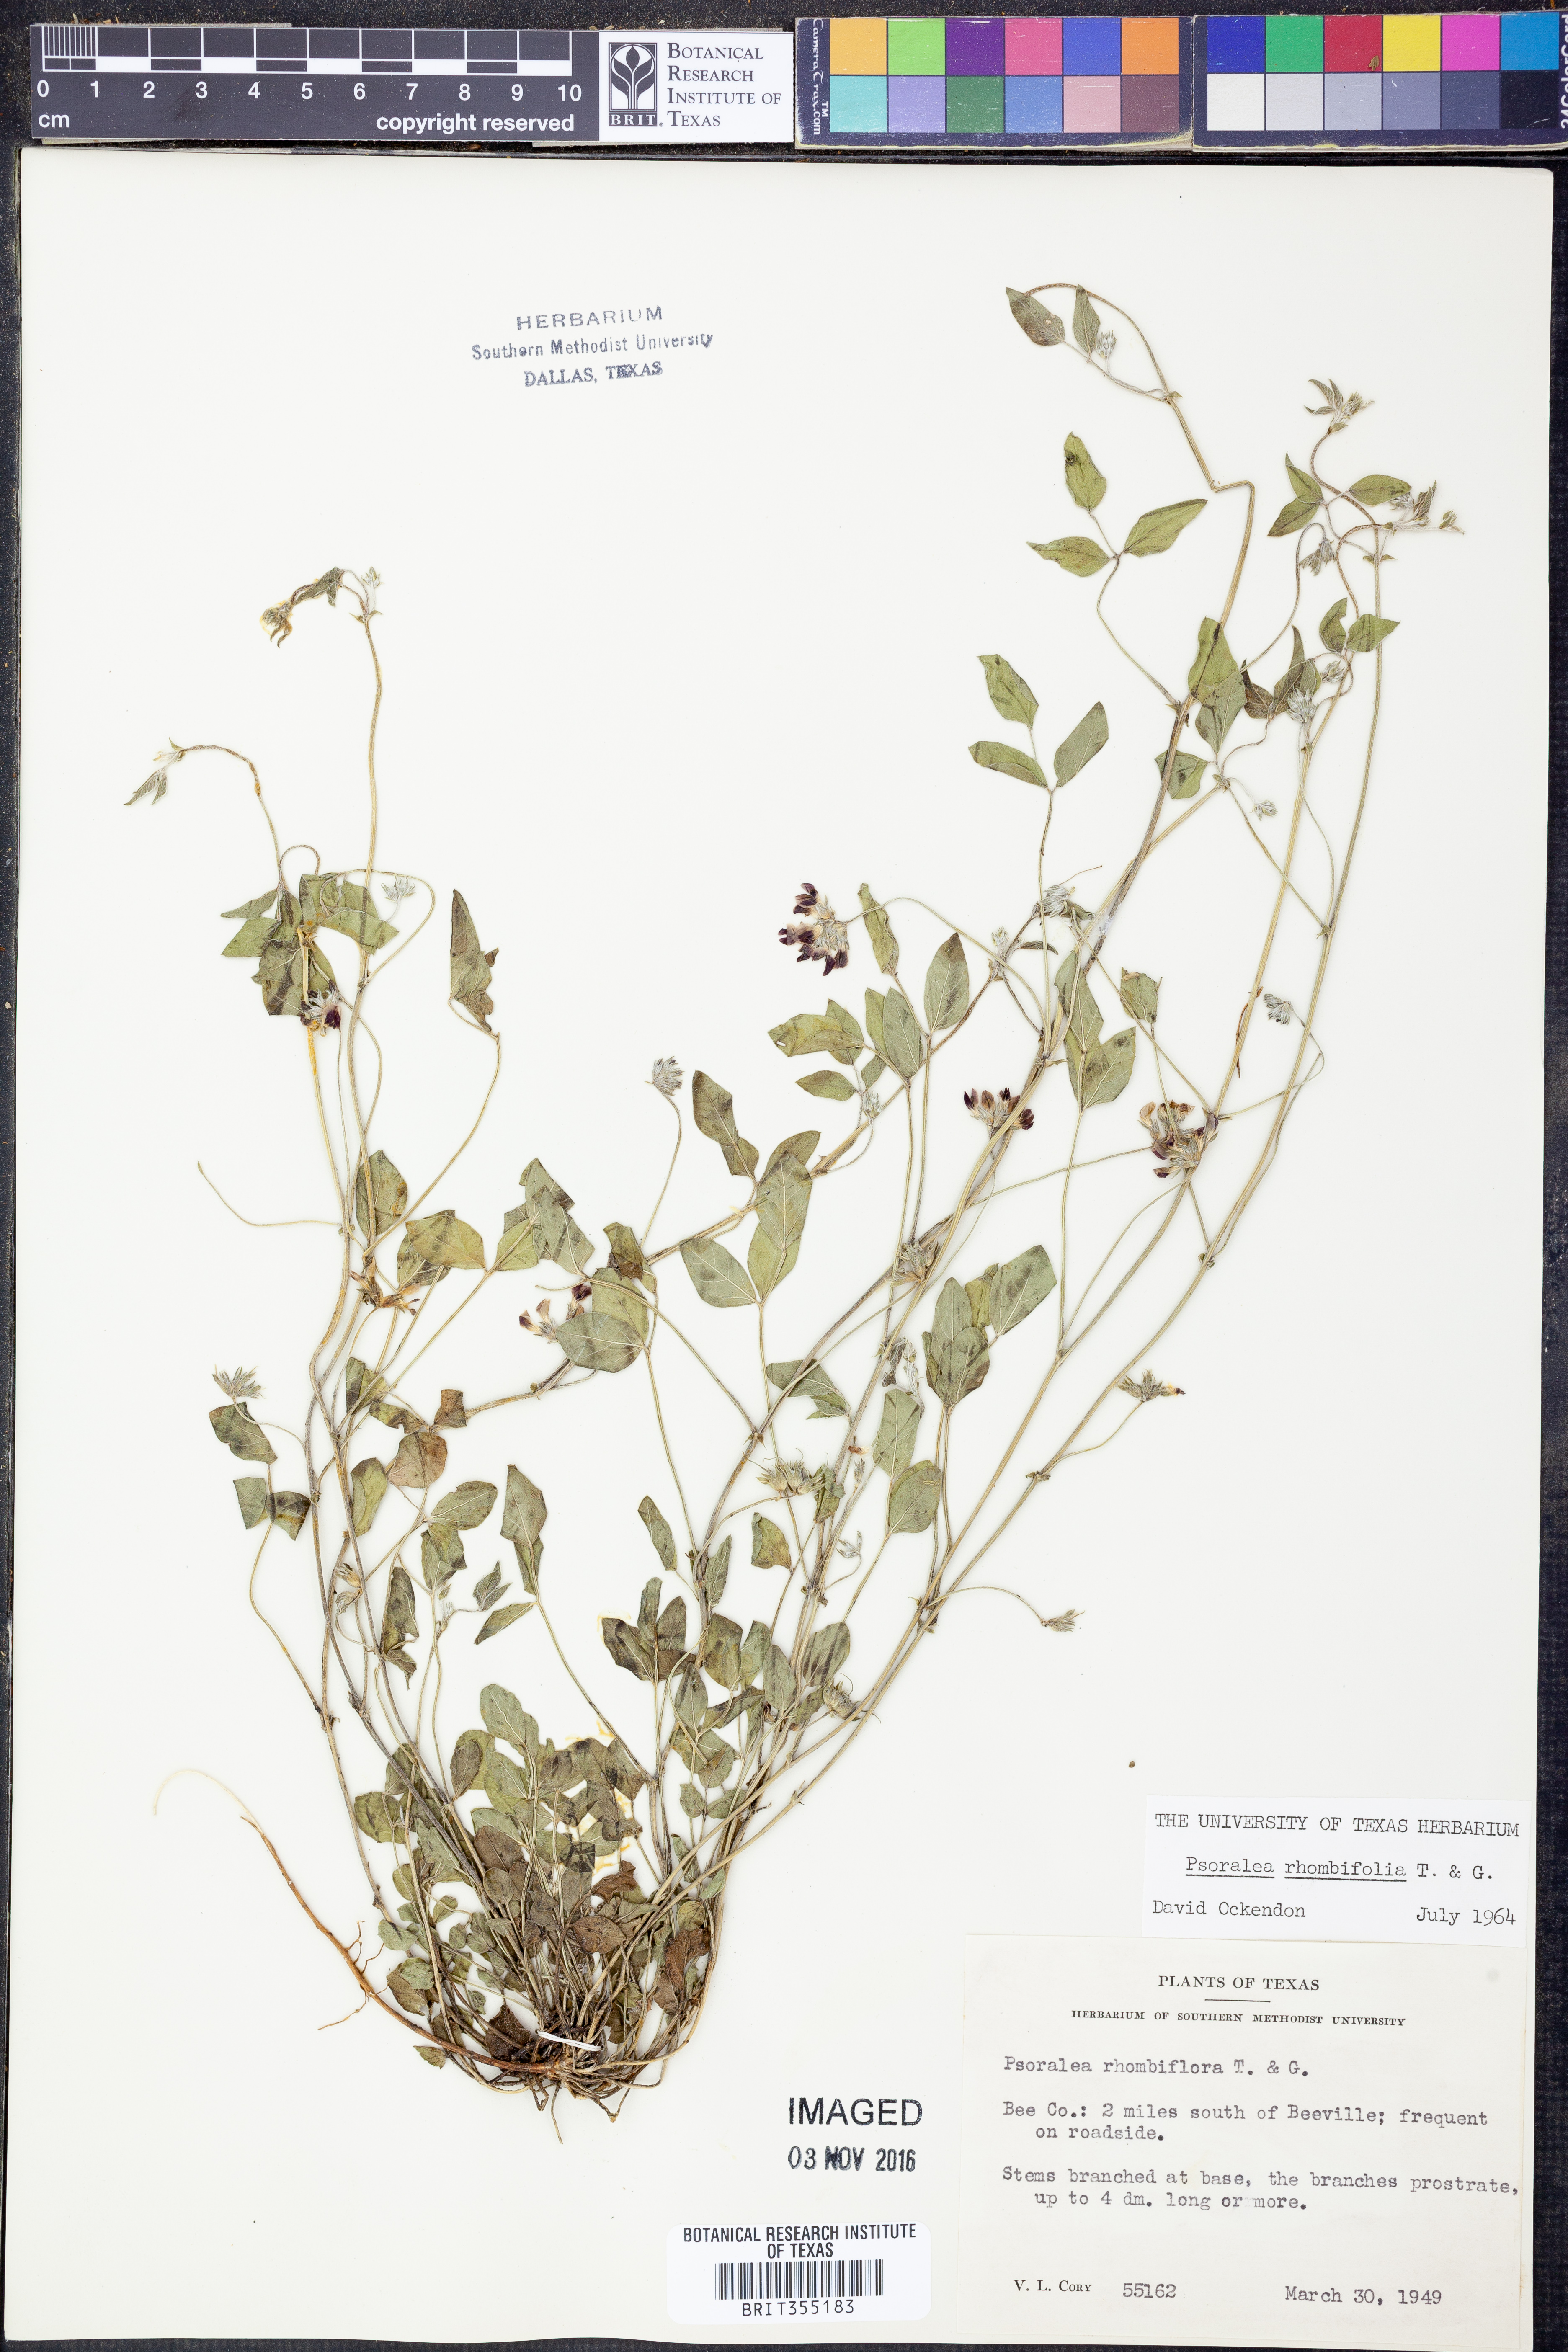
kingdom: Plantae
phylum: Tracheophyta
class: Magnoliopsida
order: Fabales
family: Fabaceae
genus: Pediomelum
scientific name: Pediomelum rhombifolium
